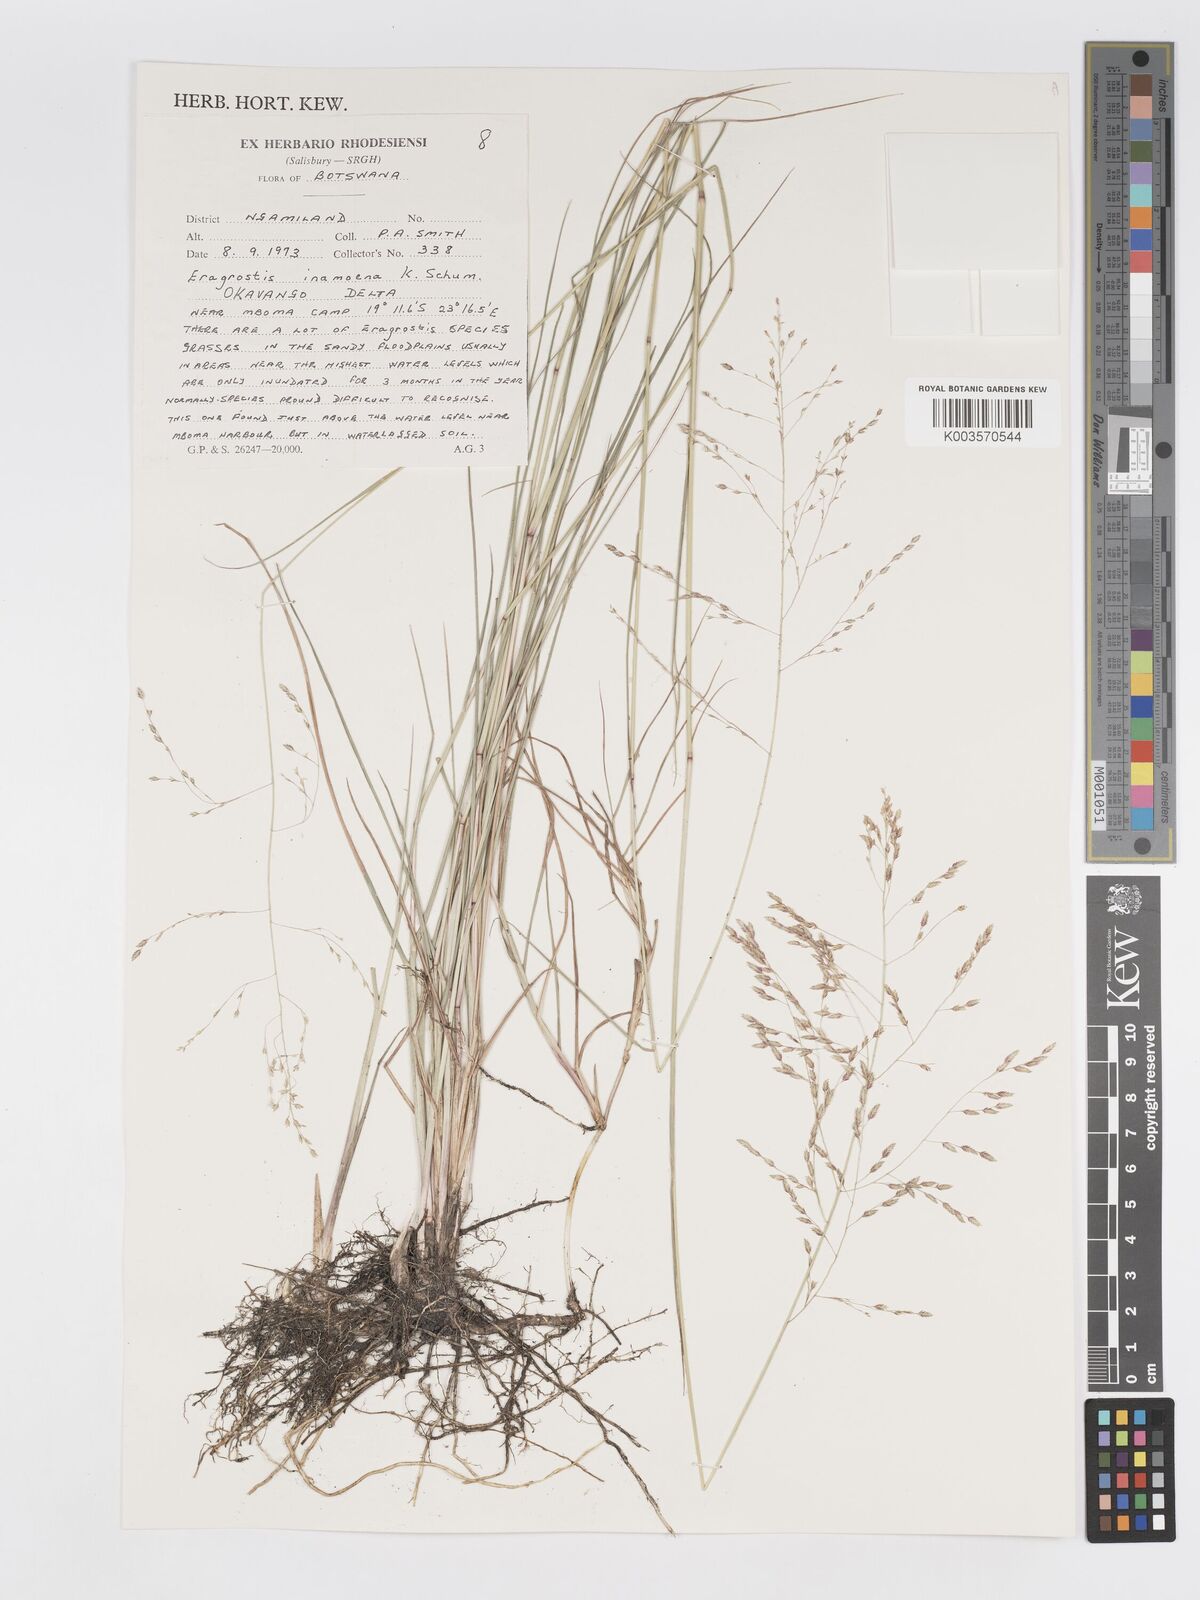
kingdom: Plantae
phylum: Tracheophyta
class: Liliopsida
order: Poales
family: Poaceae
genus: Eragrostis
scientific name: Eragrostis inamoena
